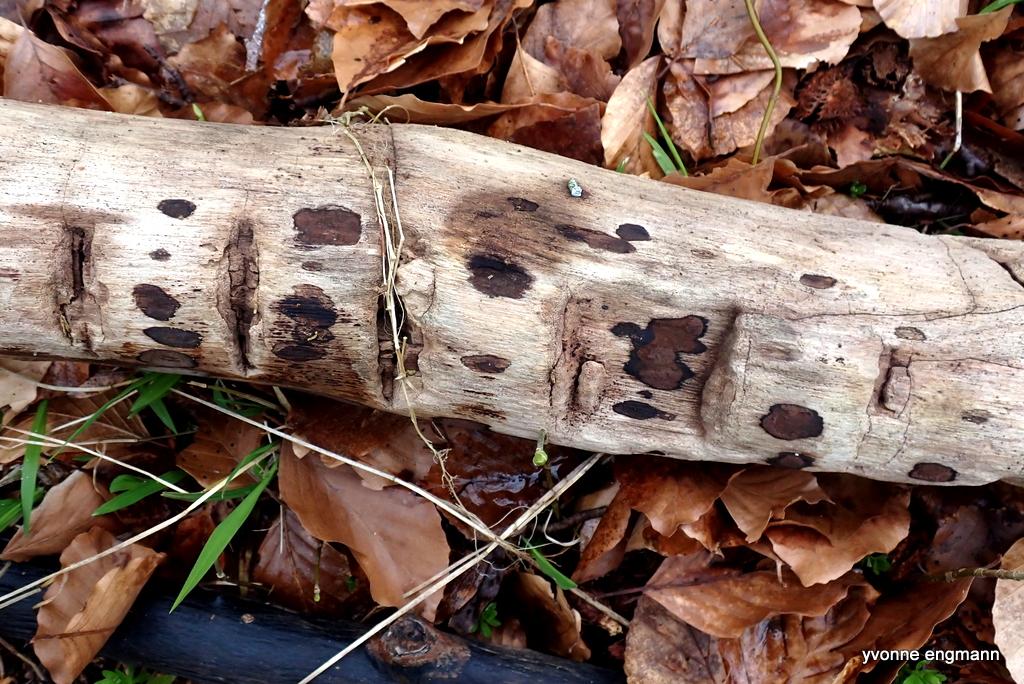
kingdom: Fungi
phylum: Ascomycota
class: Sordariomycetes
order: Xylariales
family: Hypoxylaceae
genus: Hypoxylon
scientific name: Hypoxylon petriniae
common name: nedsænket kulbær
